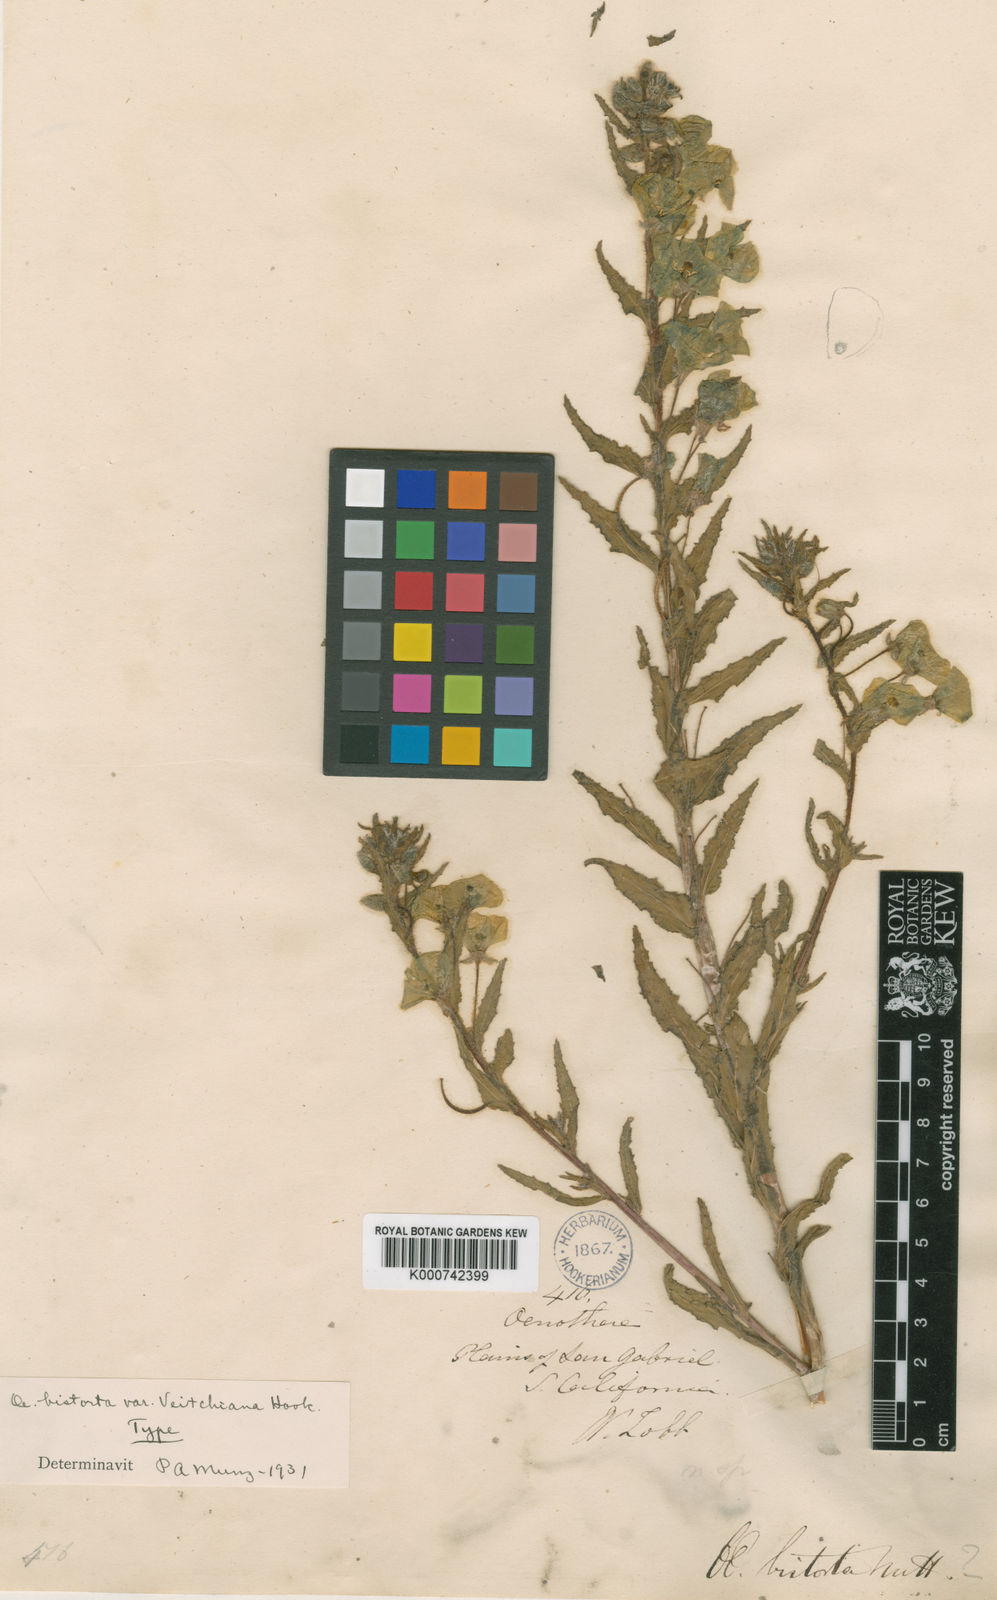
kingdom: Plantae
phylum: Tracheophyta
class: Magnoliopsida
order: Myrtales
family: Onagraceae
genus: Camissoniopsis
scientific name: Camissoniopsis bistorta
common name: Southern suncup
